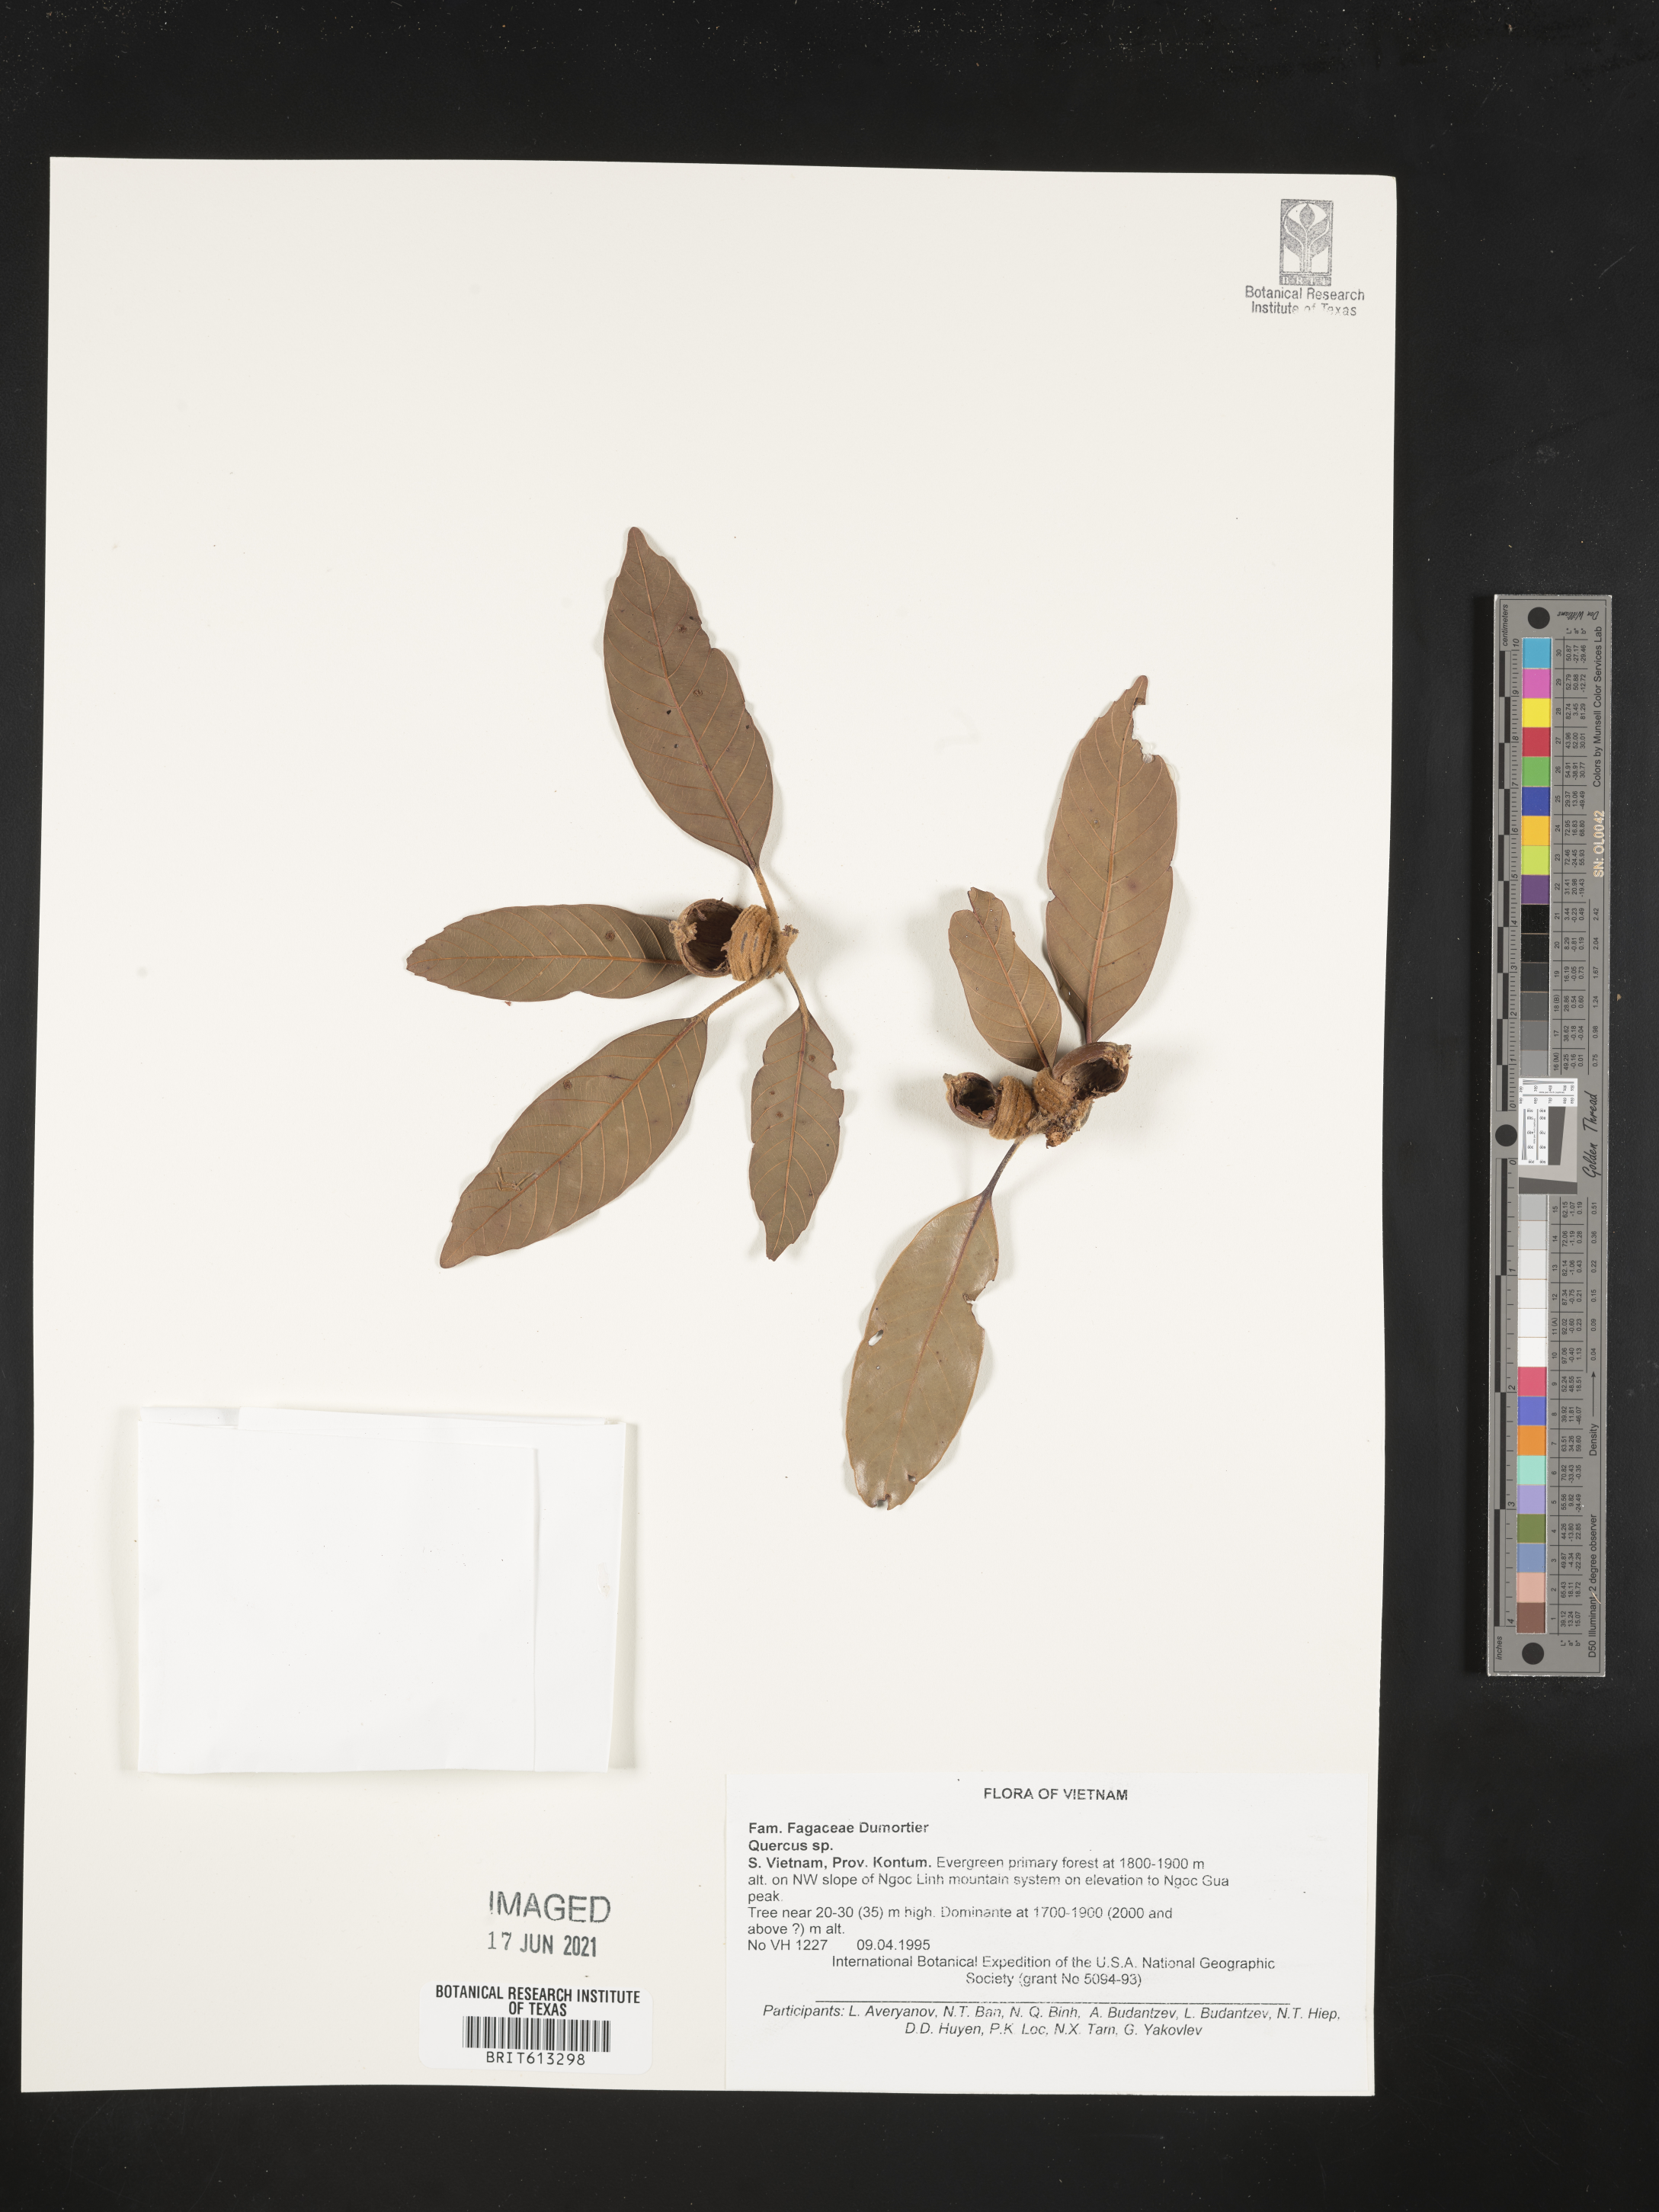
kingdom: Plantae
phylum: Tracheophyta
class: Magnoliopsida
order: Fagales
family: Fagaceae
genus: Quercus
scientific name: Quercus
